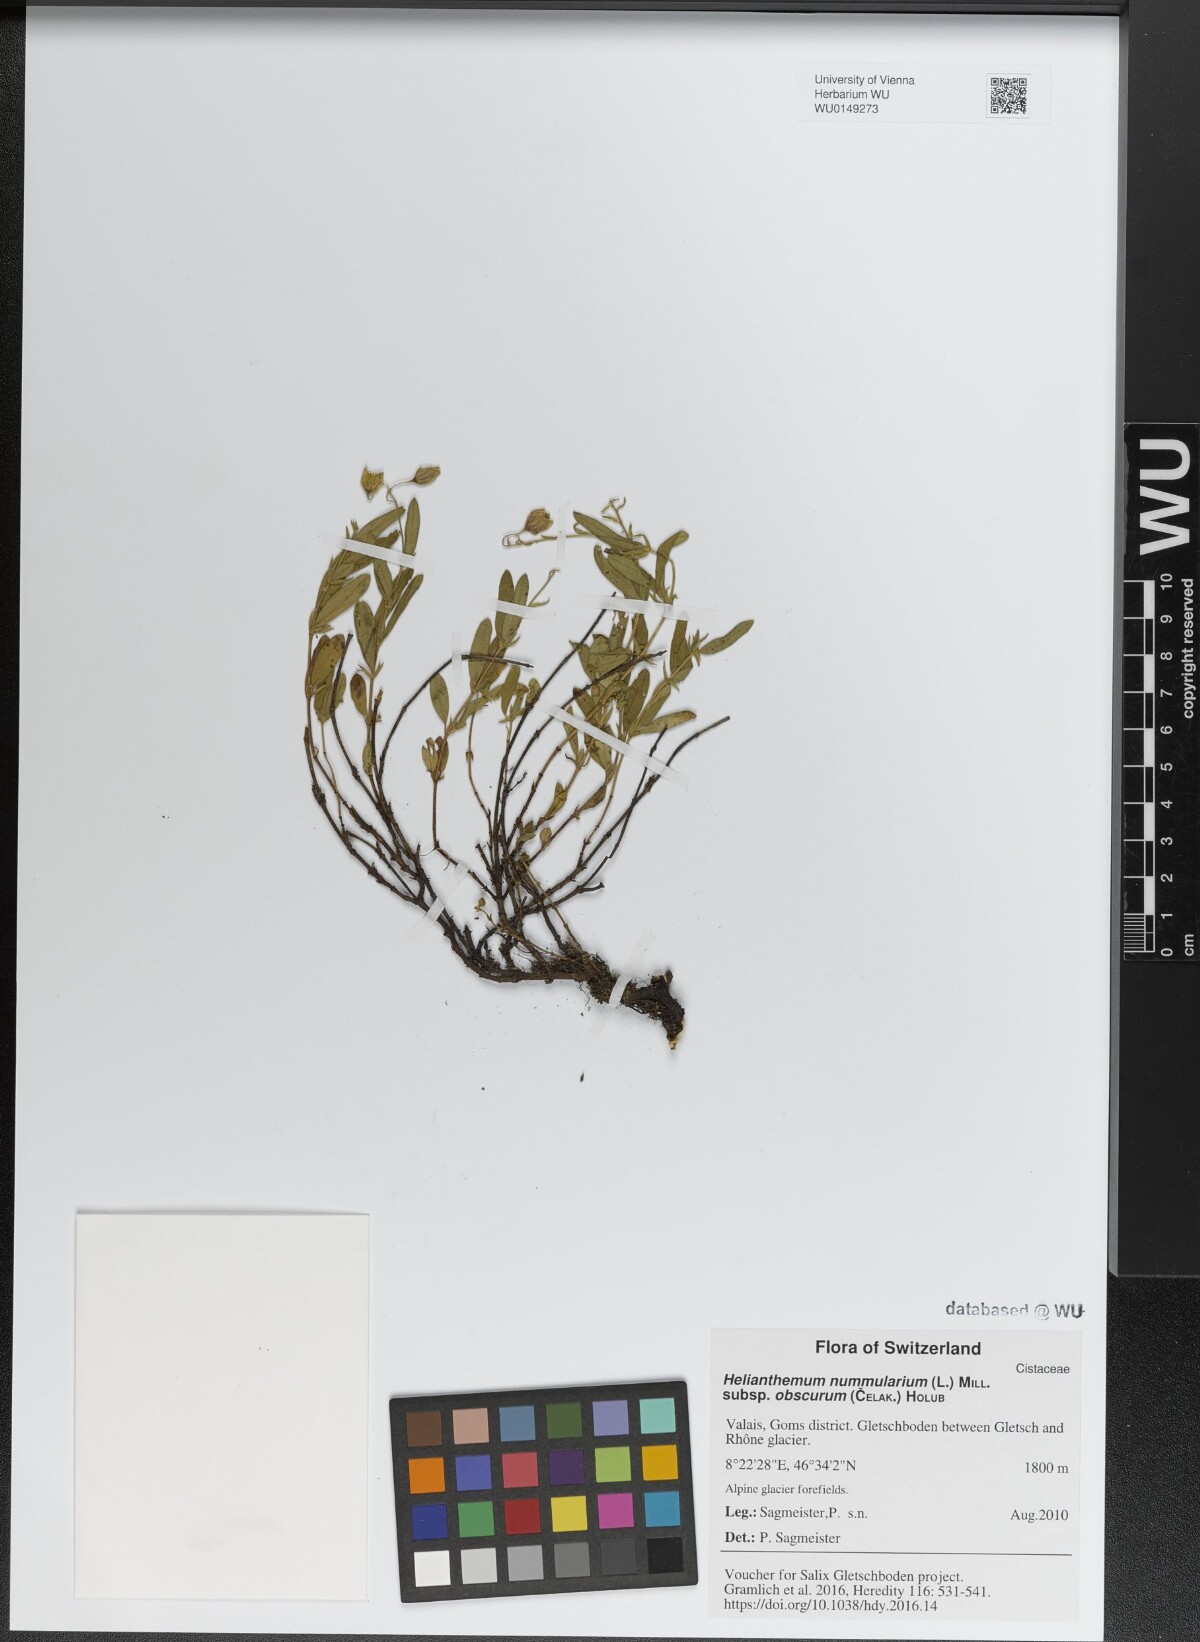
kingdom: Plantae
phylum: Tracheophyta
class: Magnoliopsida
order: Malvales
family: Cistaceae
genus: Helianthemum
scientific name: Helianthemum nummularium
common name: Common rock-rose
